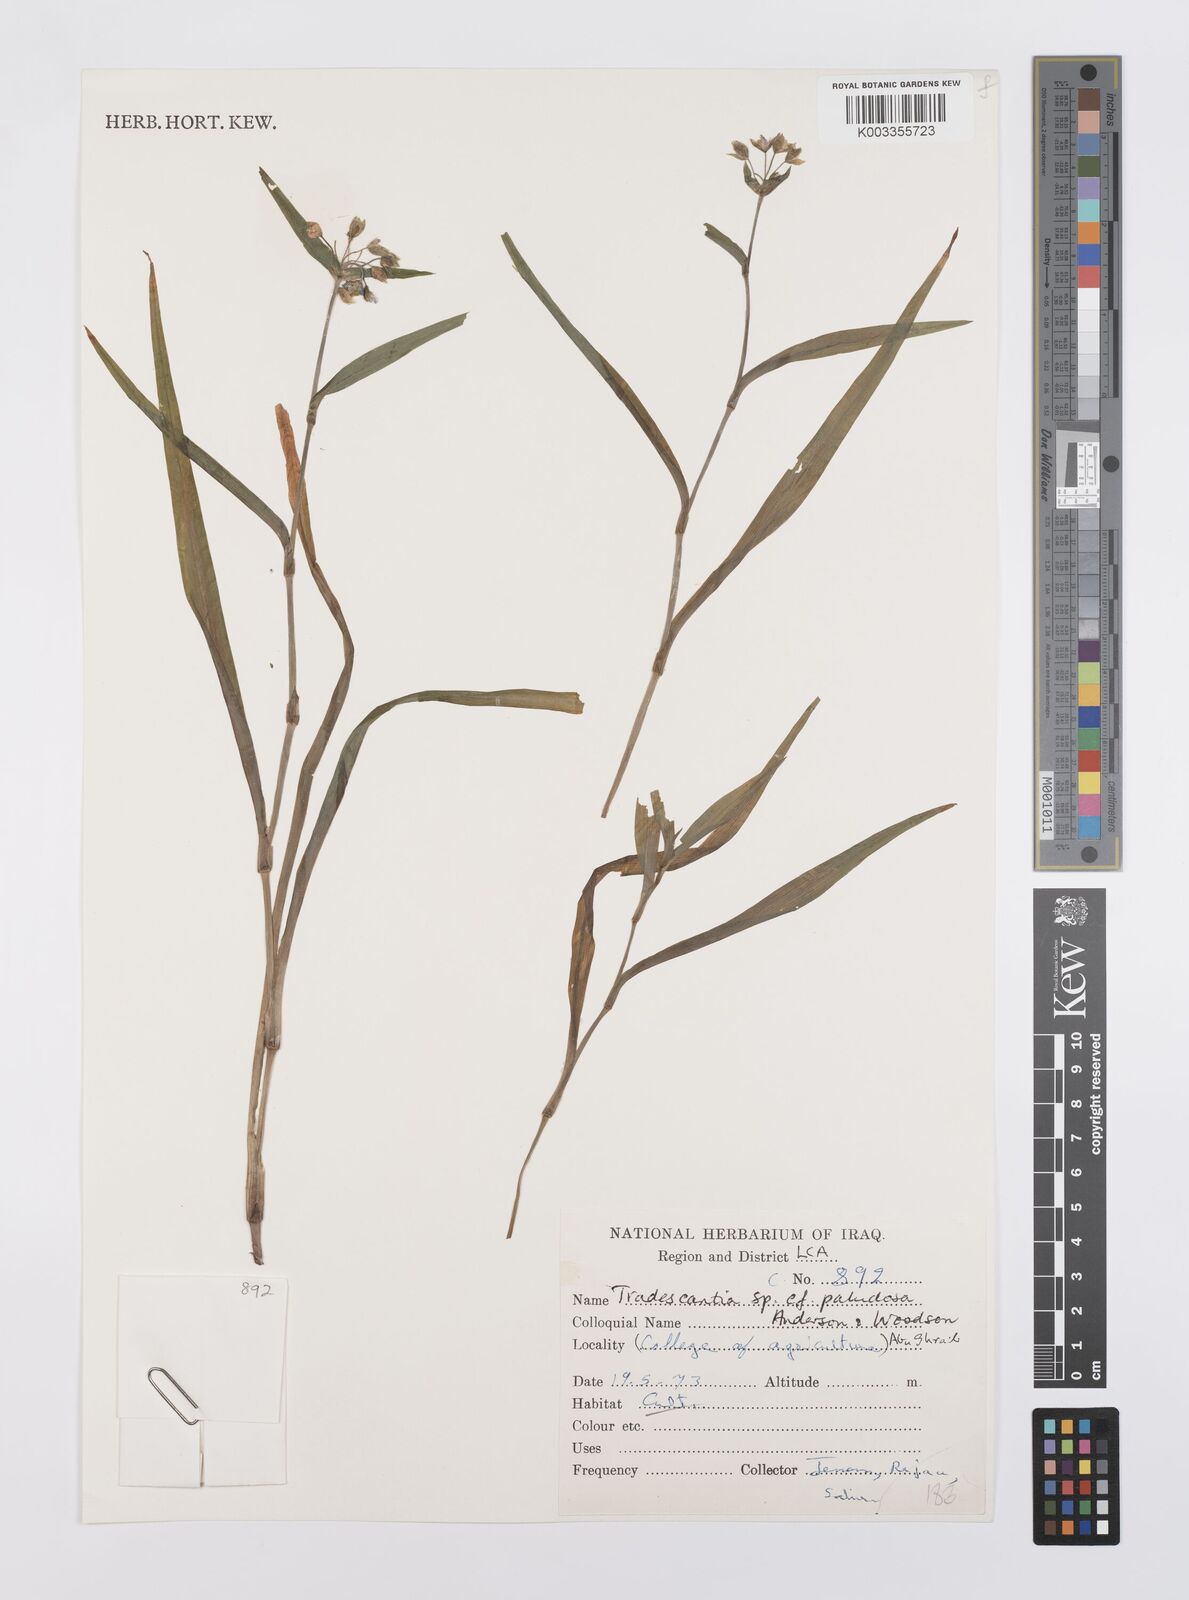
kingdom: Plantae
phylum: Tracheophyta
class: Liliopsida
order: Commelinales
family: Commelinaceae
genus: Tradescantia
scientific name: Tradescantia ohiensis
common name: Ohio spiderwort
